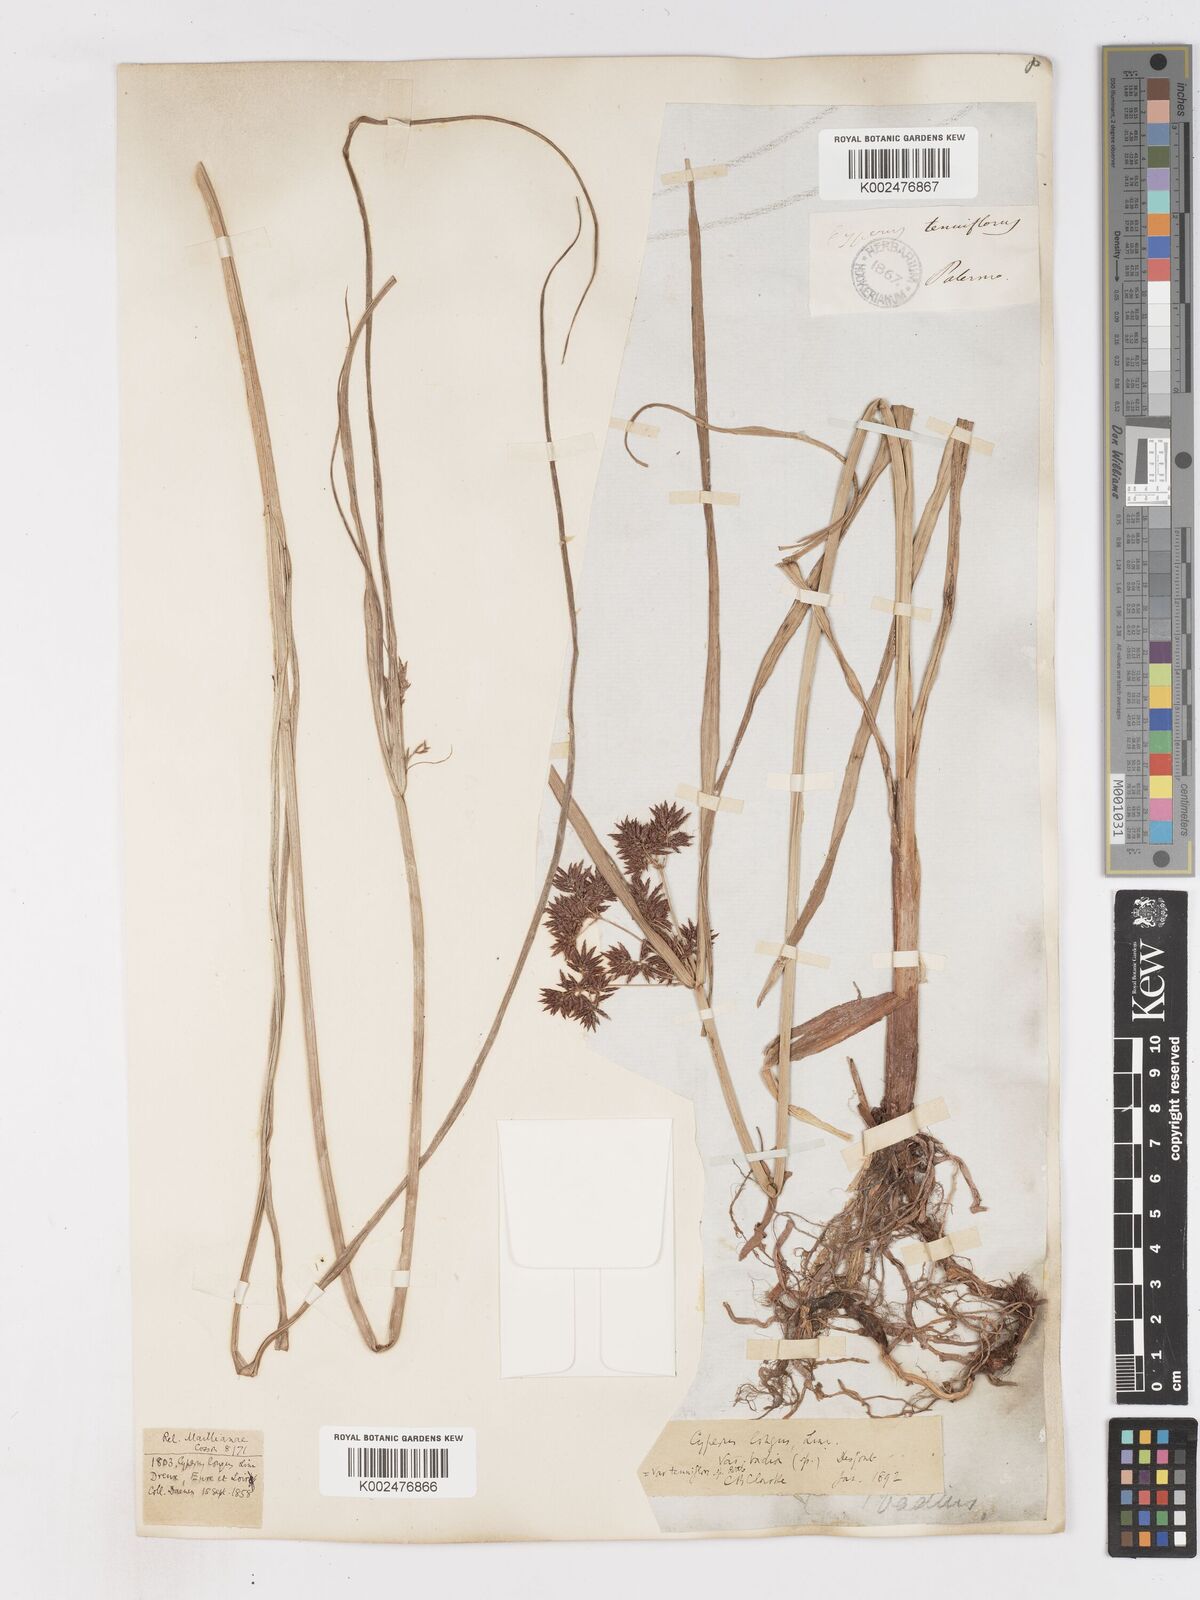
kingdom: Plantae
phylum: Tracheophyta
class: Liliopsida
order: Poales
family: Cyperaceae
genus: Cyperus
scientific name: Cyperus longus
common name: Galingale
